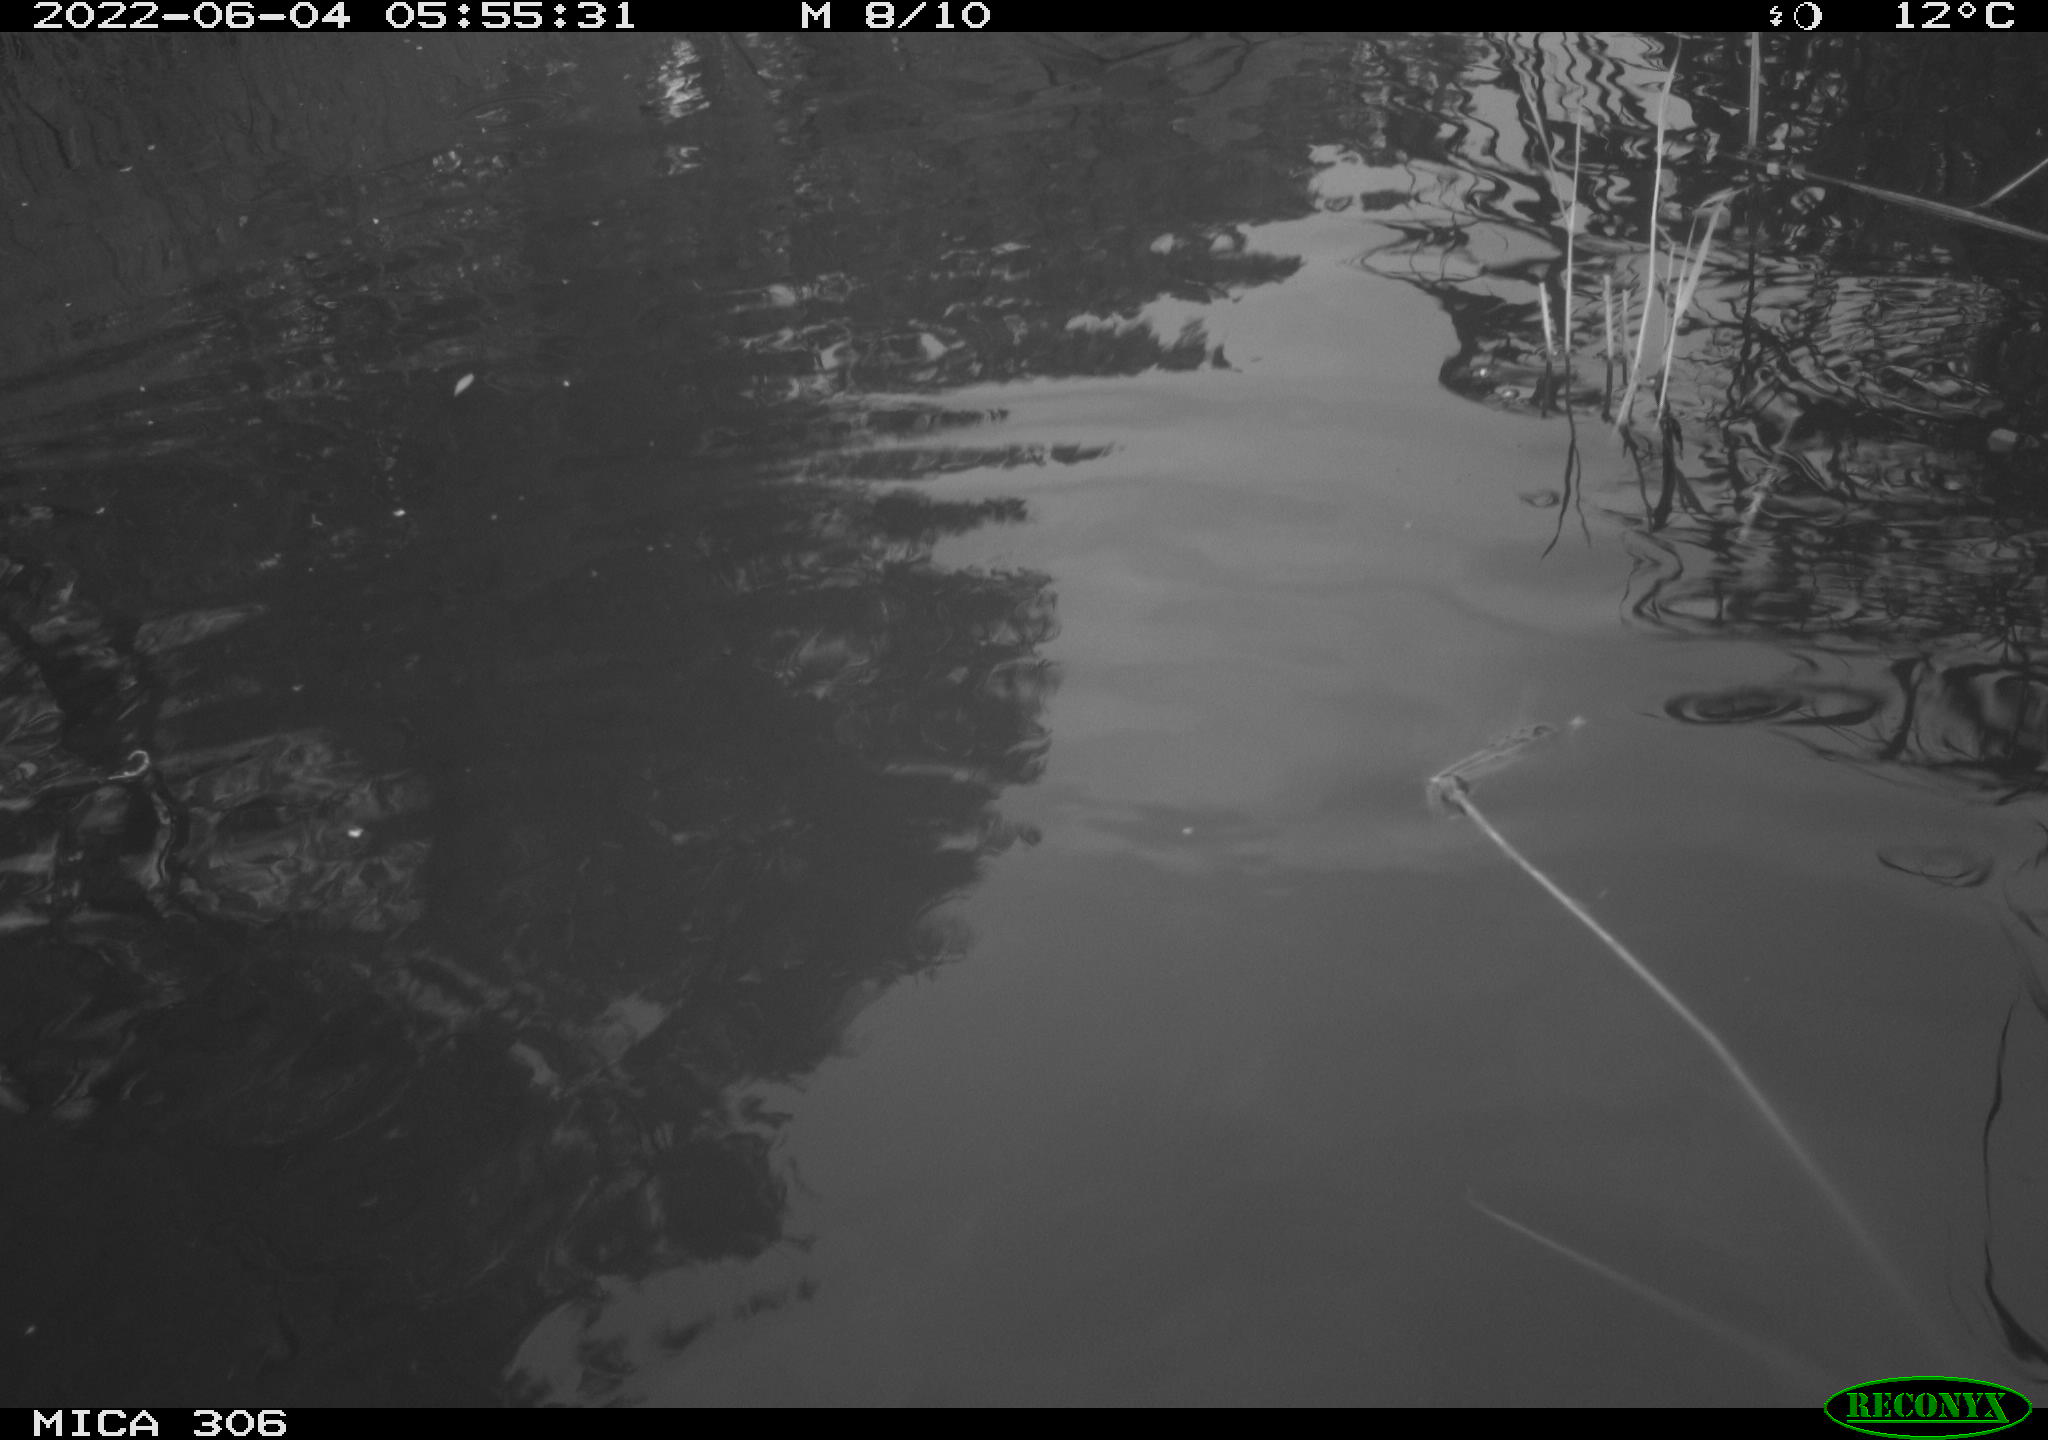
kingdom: Animalia
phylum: Chordata
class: Aves
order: Gruiformes
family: Rallidae
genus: Fulica
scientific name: Fulica atra
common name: Eurasian coot
